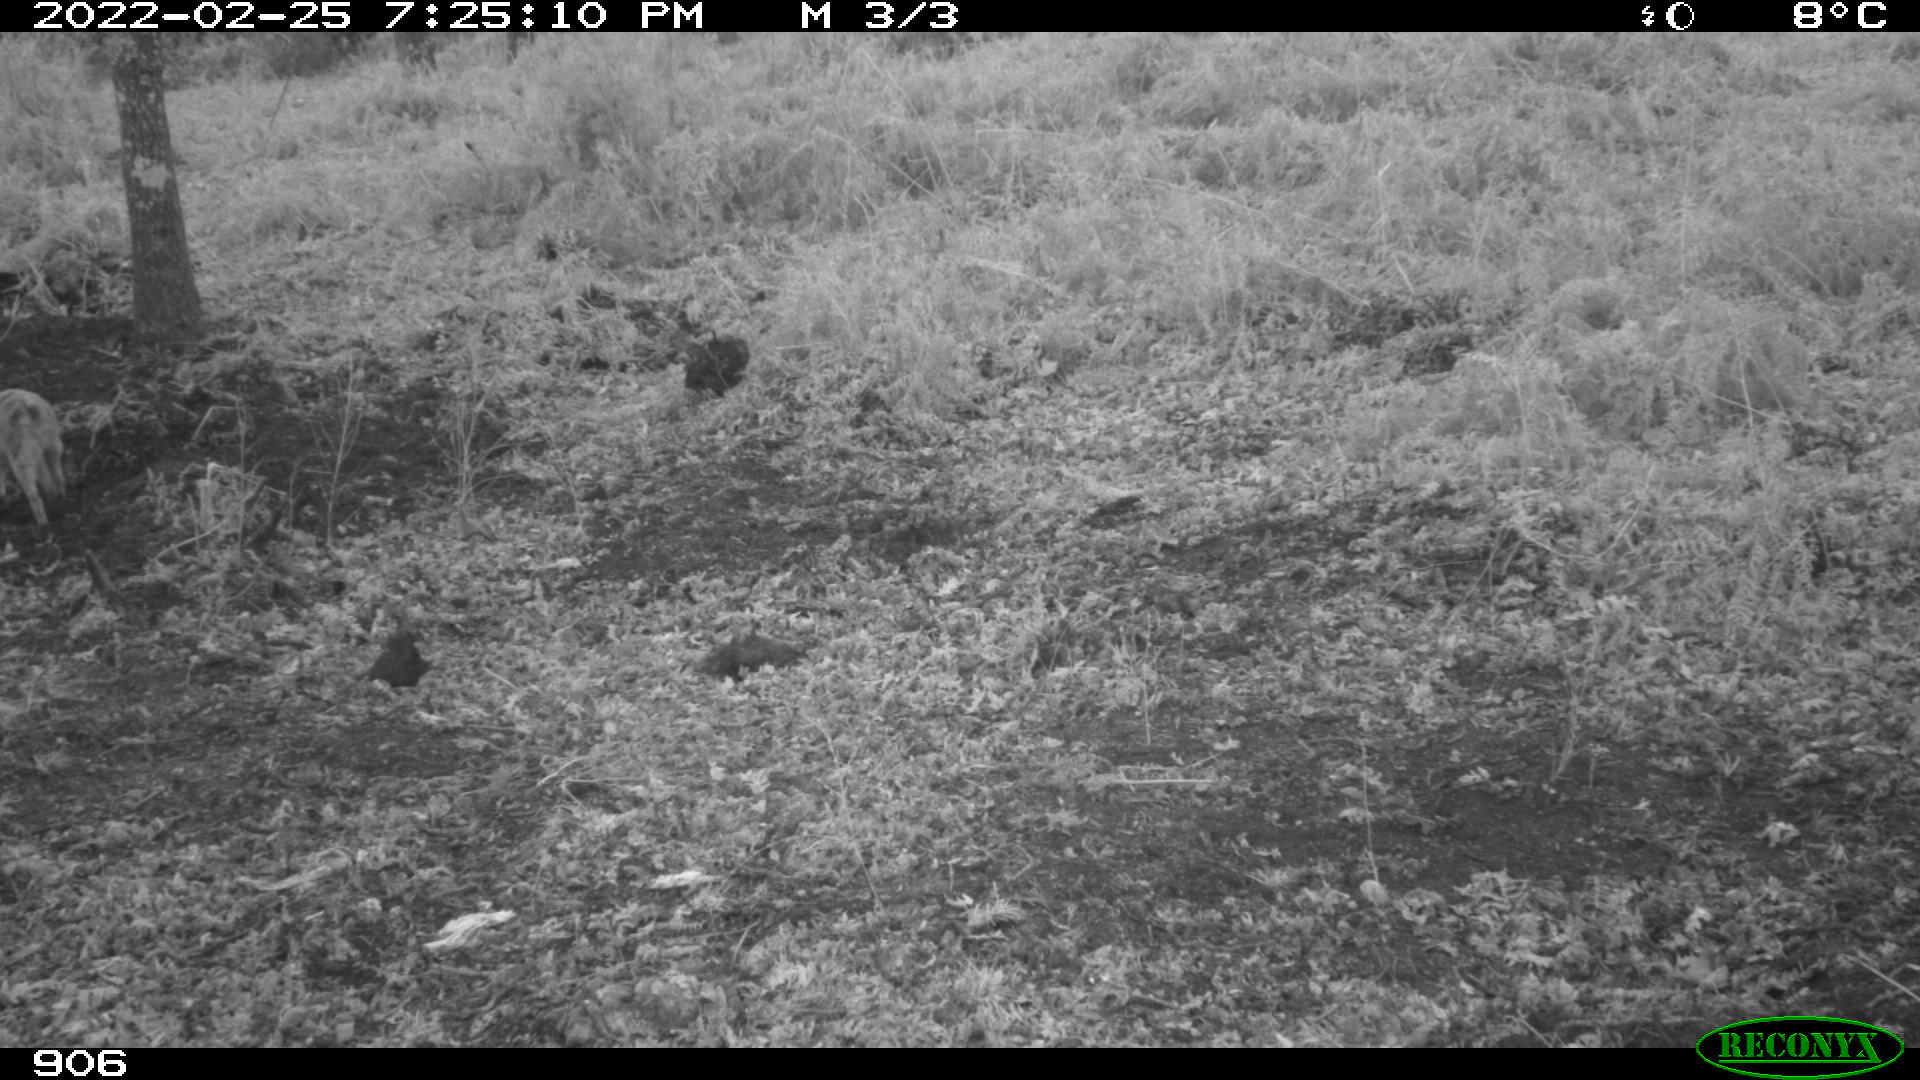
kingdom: Animalia
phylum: Chordata
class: Mammalia
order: Carnivora
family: Canidae
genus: Vulpes
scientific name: Vulpes vulpes
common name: Red fox
